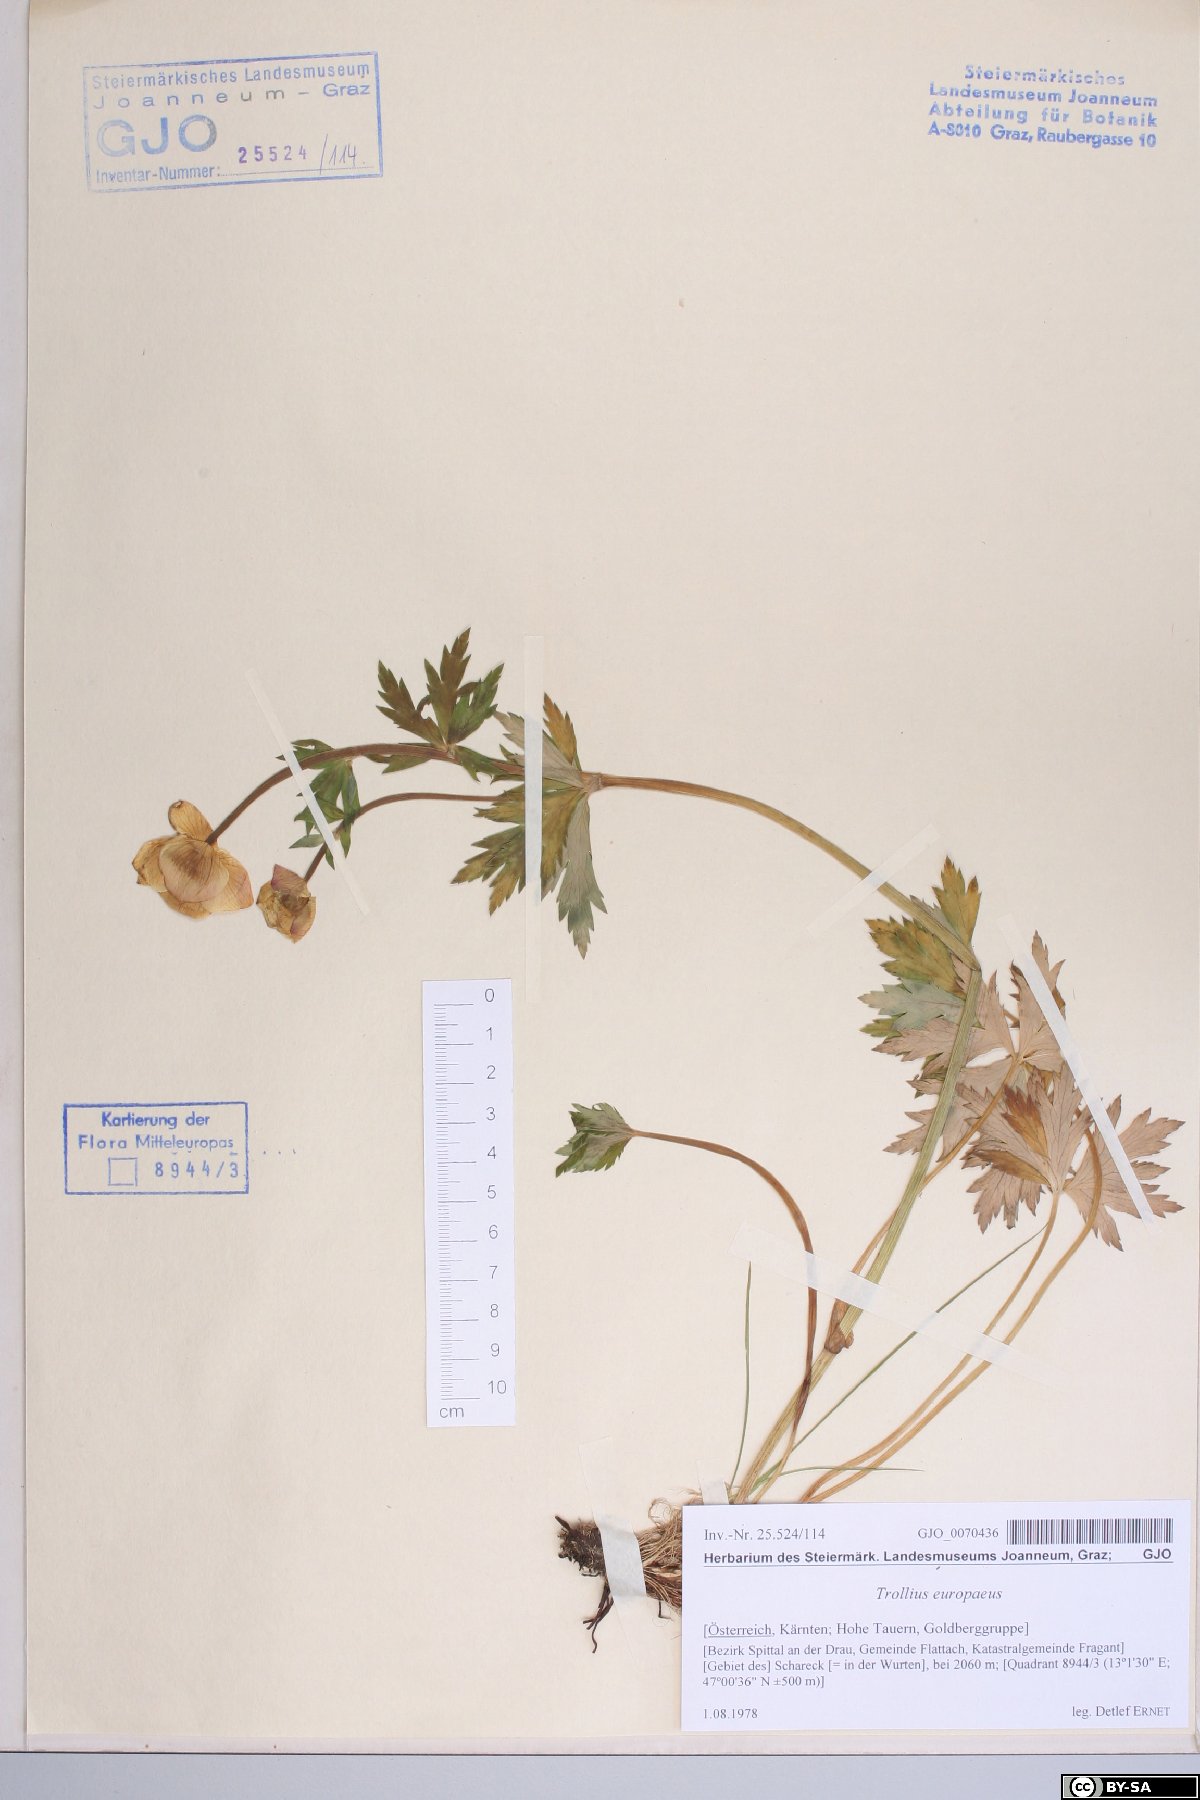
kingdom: Plantae
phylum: Tracheophyta
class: Magnoliopsida
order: Ranunculales
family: Ranunculaceae
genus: Trollius
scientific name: Trollius europaeus
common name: European globeflower
